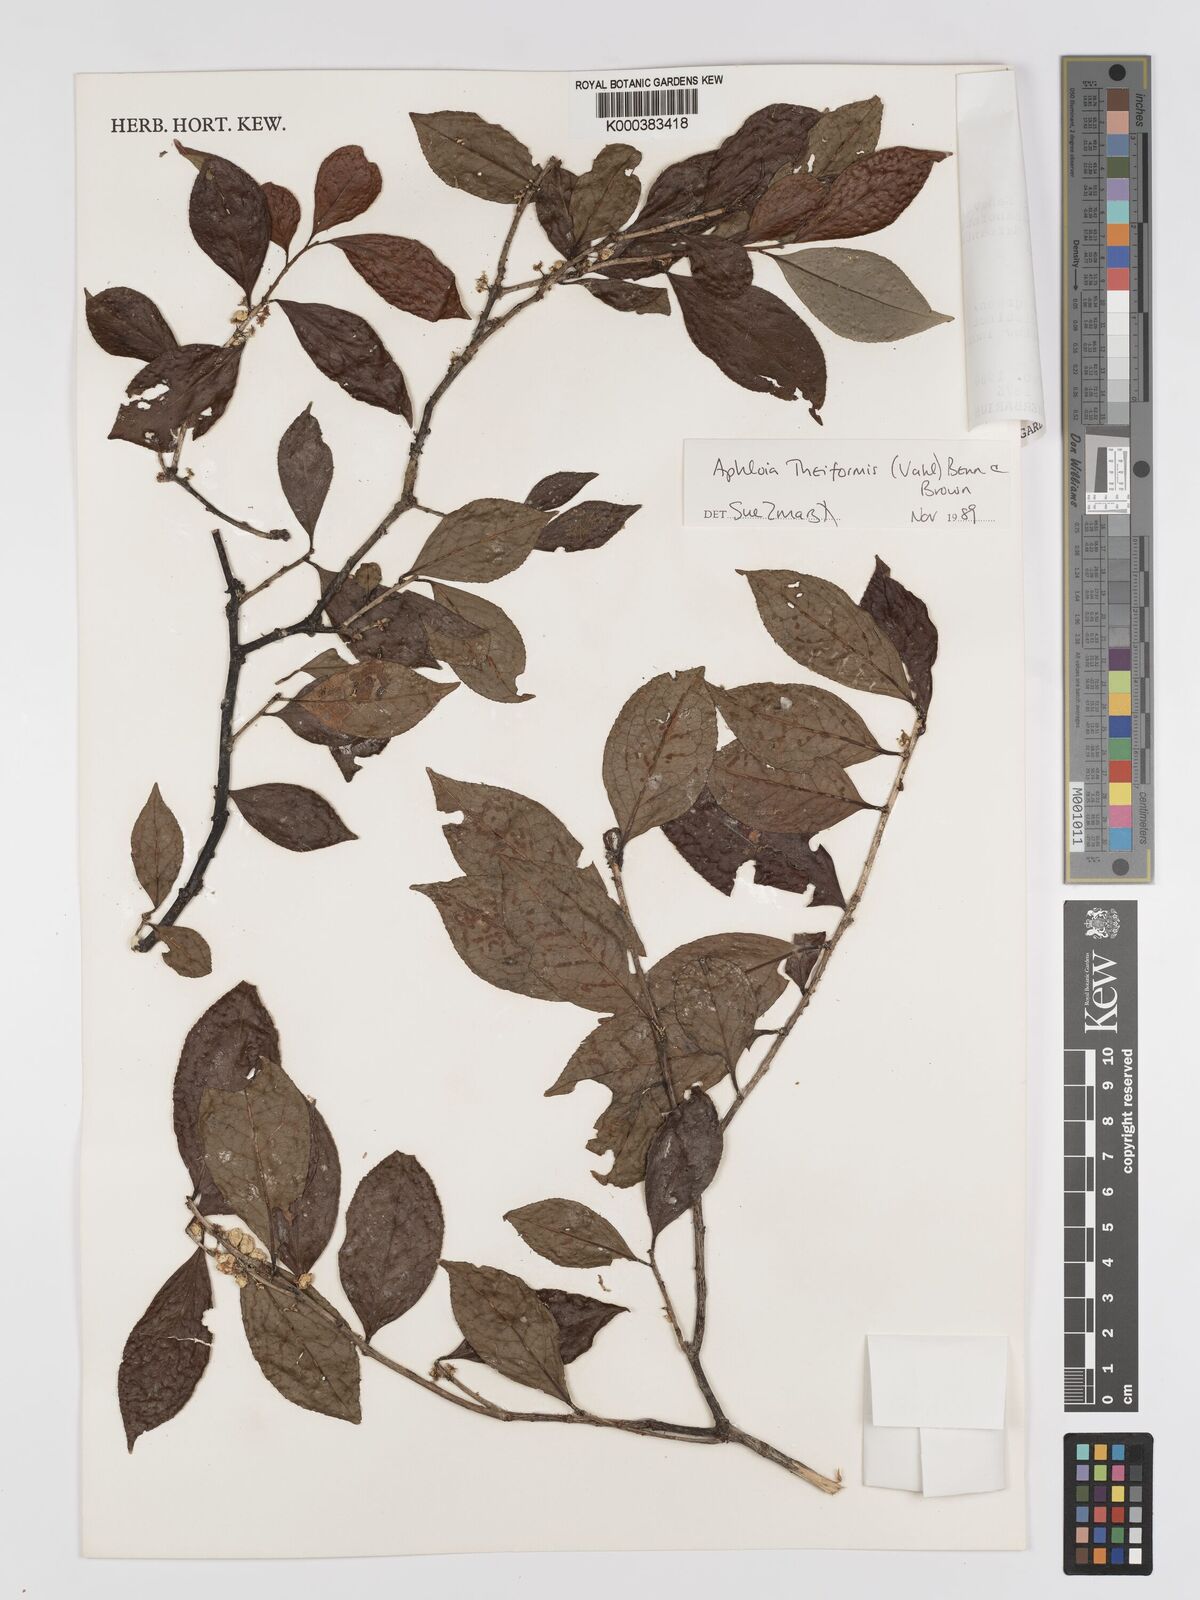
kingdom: Plantae
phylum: Tracheophyta
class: Magnoliopsida
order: Crossosomatales
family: Aphloiaceae
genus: Aphloia
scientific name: Aphloia theiformis
